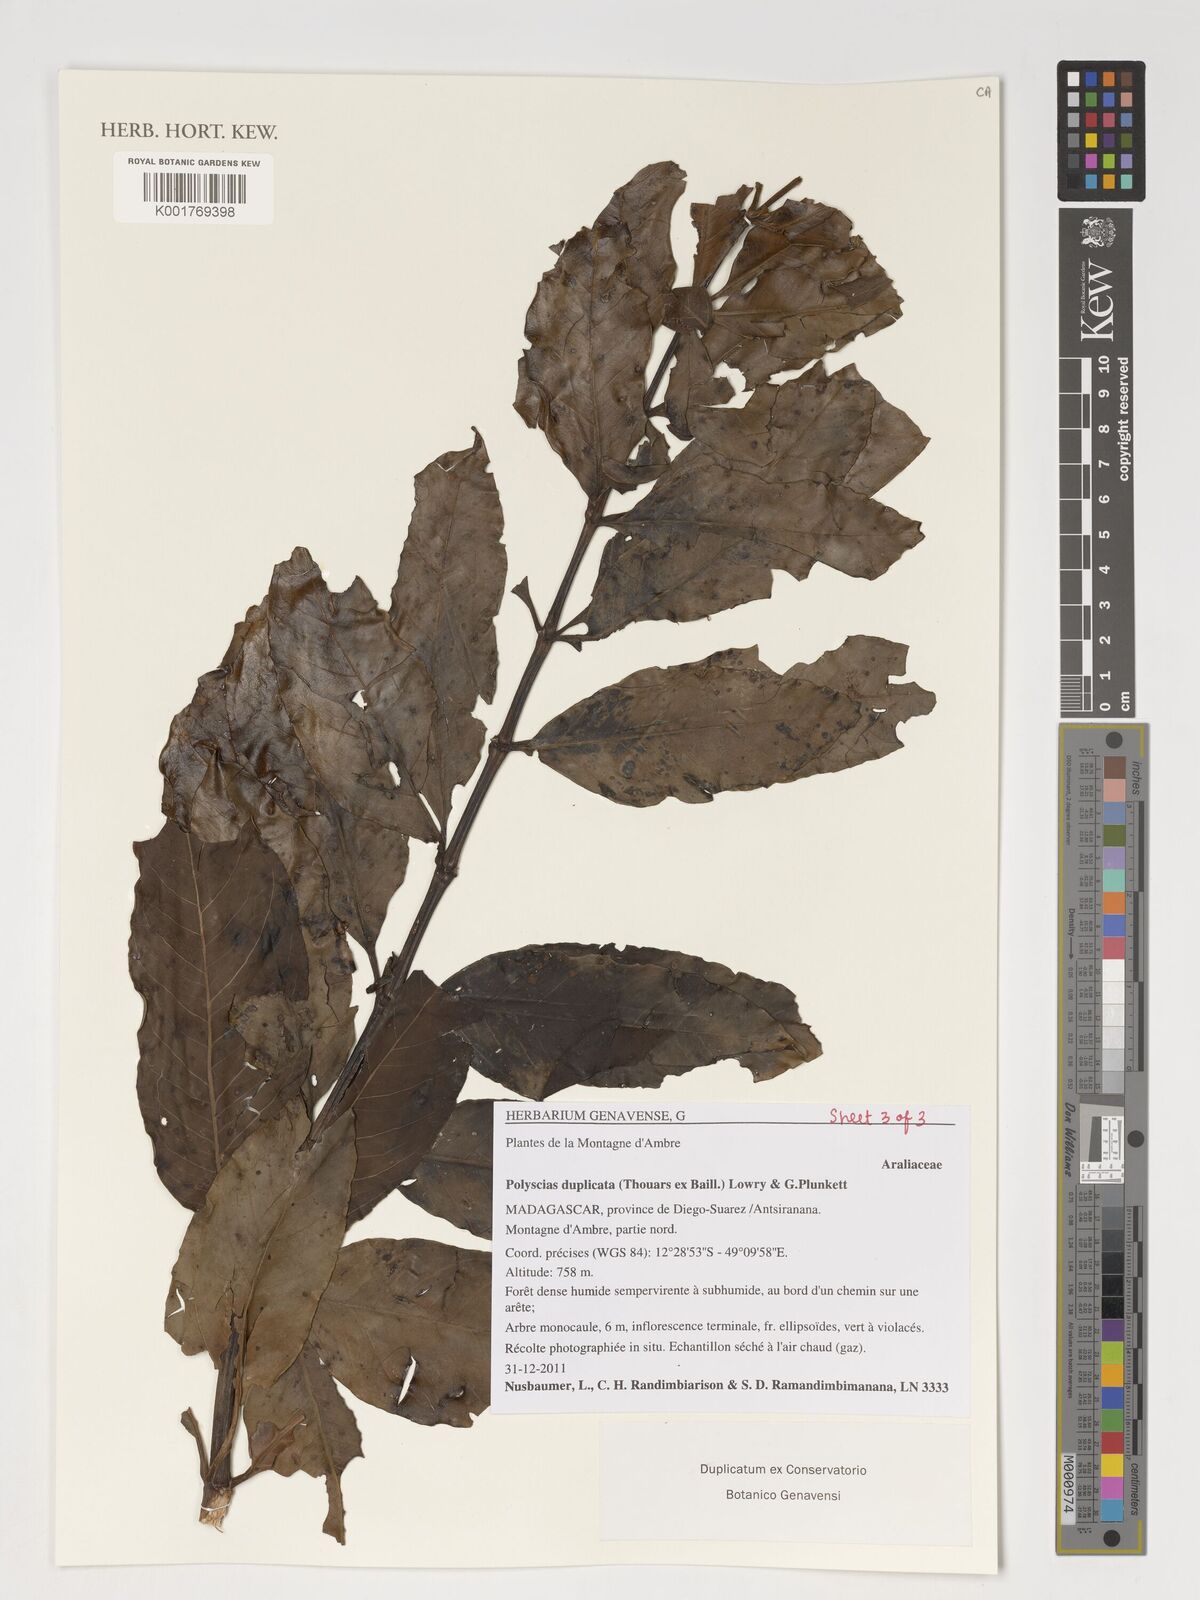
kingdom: Plantae
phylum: Tracheophyta
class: Magnoliopsida
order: Apiales
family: Araliaceae
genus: Polyscias
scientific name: Polyscias duplicata
